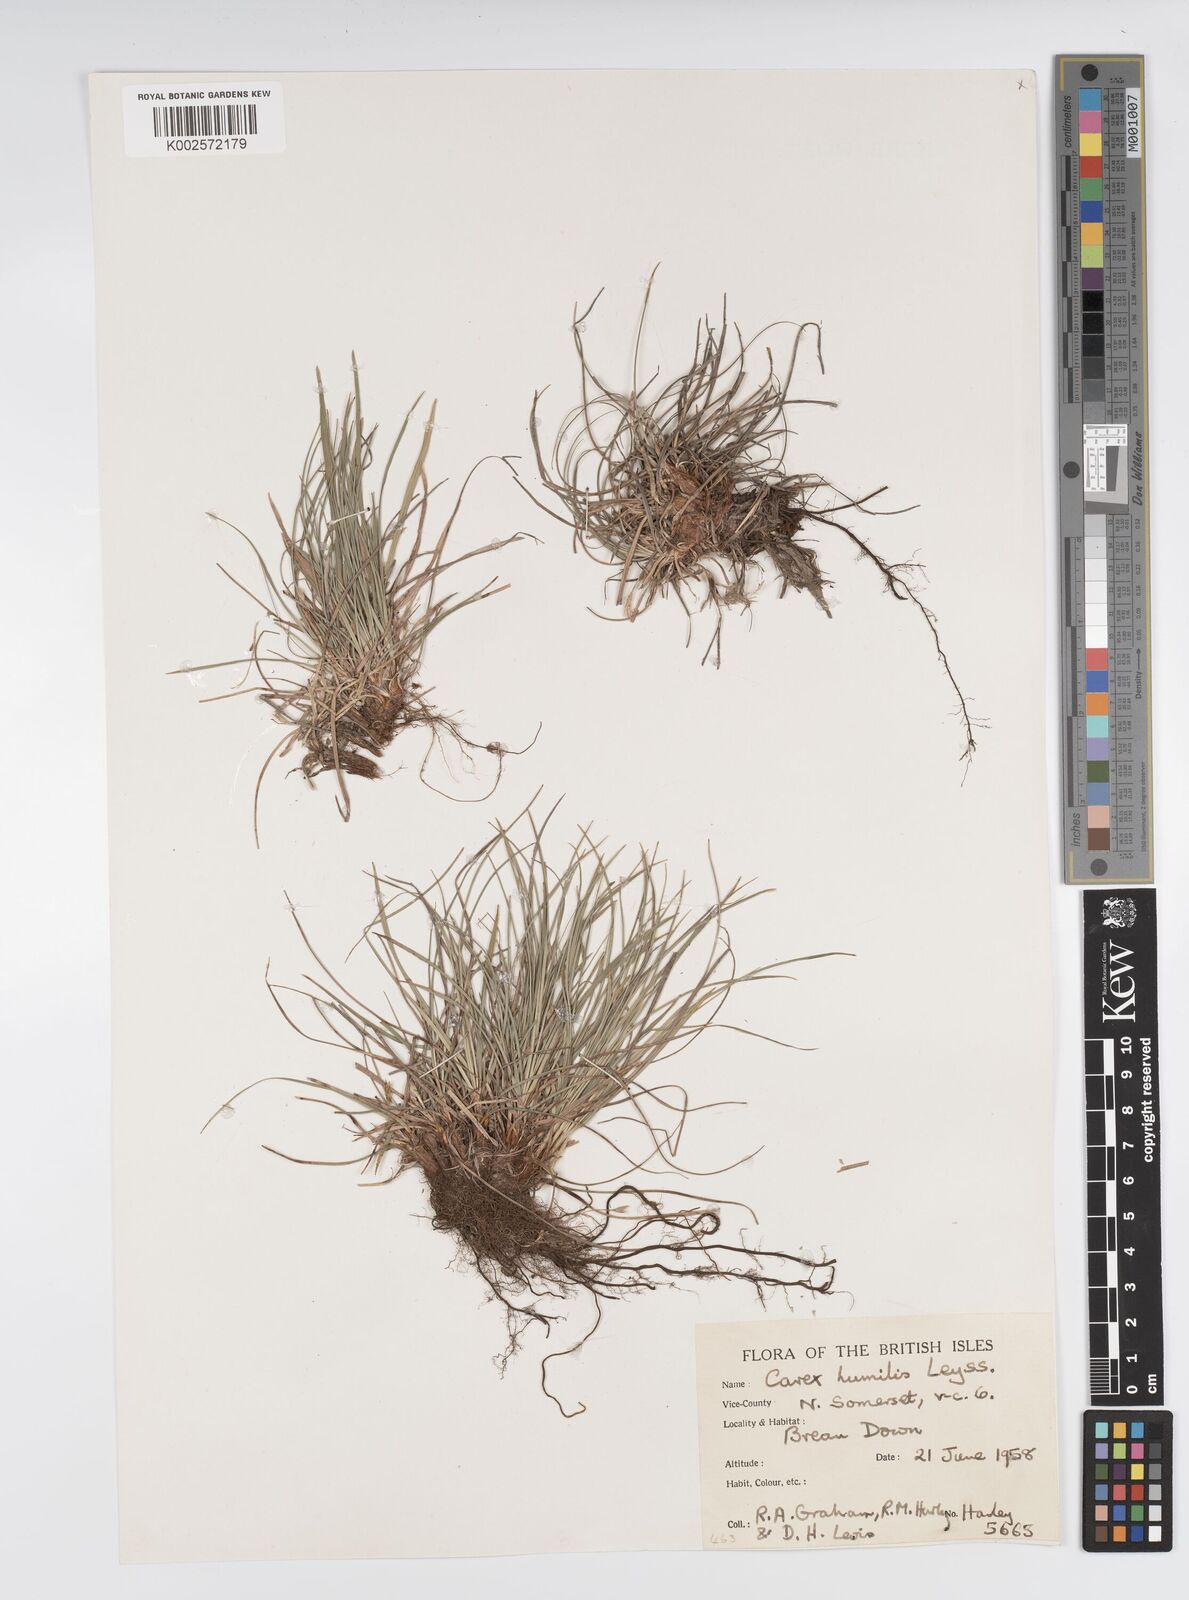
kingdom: Plantae
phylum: Tracheophyta
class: Liliopsida
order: Poales
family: Cyperaceae
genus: Carex
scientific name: Carex humilis
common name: Dwarf sedge
